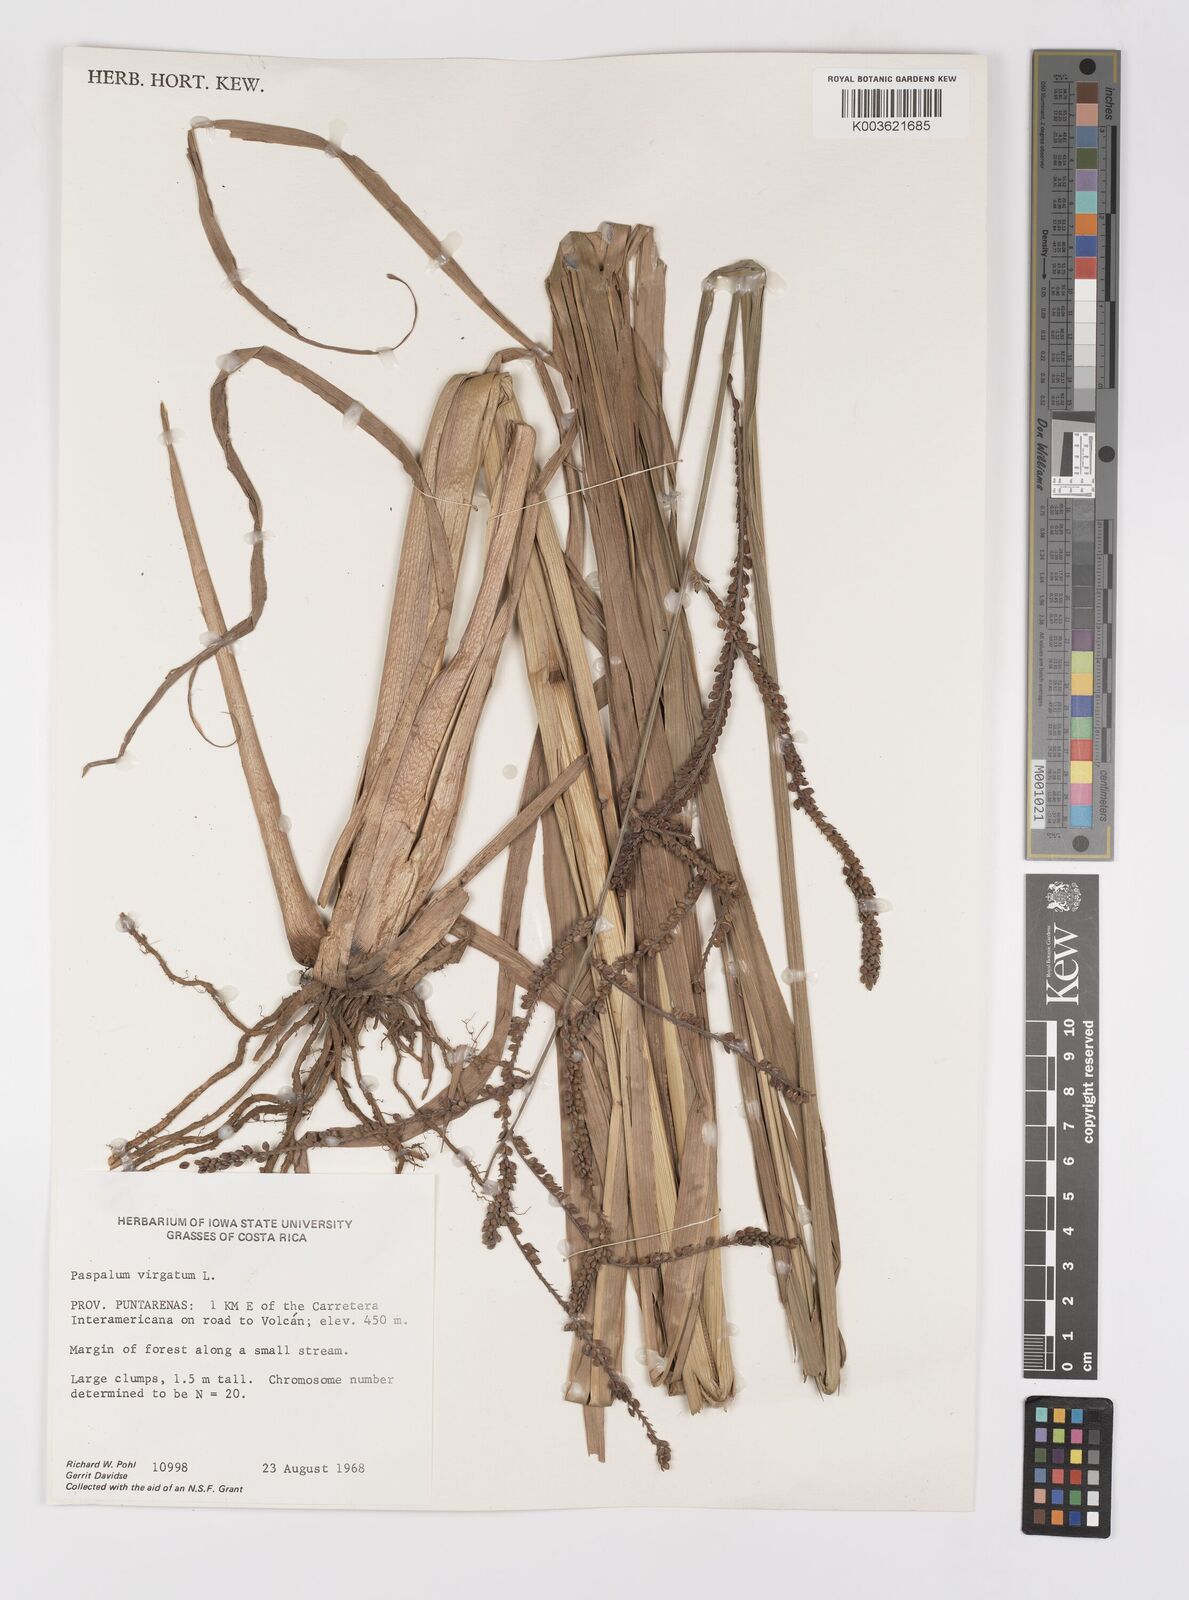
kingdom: Plantae
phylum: Tracheophyta
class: Liliopsida
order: Poales
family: Poaceae
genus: Paspalum
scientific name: Paspalum virgatum
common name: Talquezal
